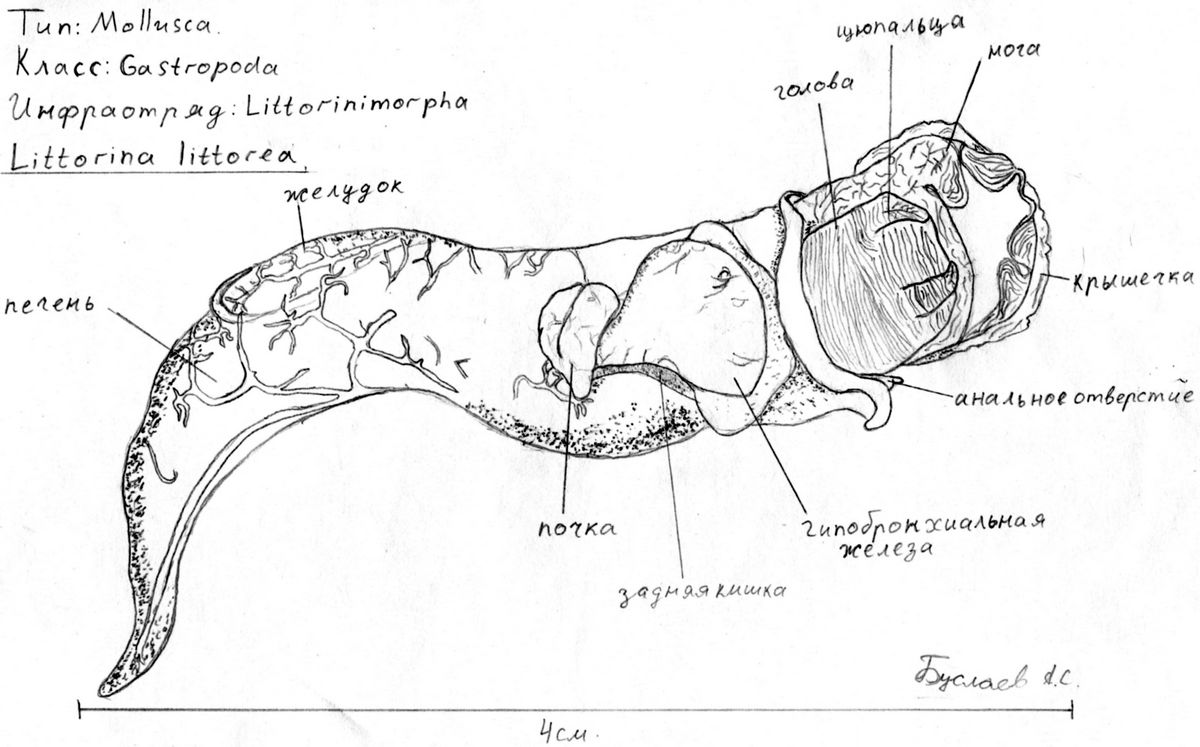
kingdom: Animalia
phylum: Mollusca
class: Gastropoda
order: Littorinimorpha
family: Littorinidae
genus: Littorina
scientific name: Littorina littorea
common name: Common periwinkle
